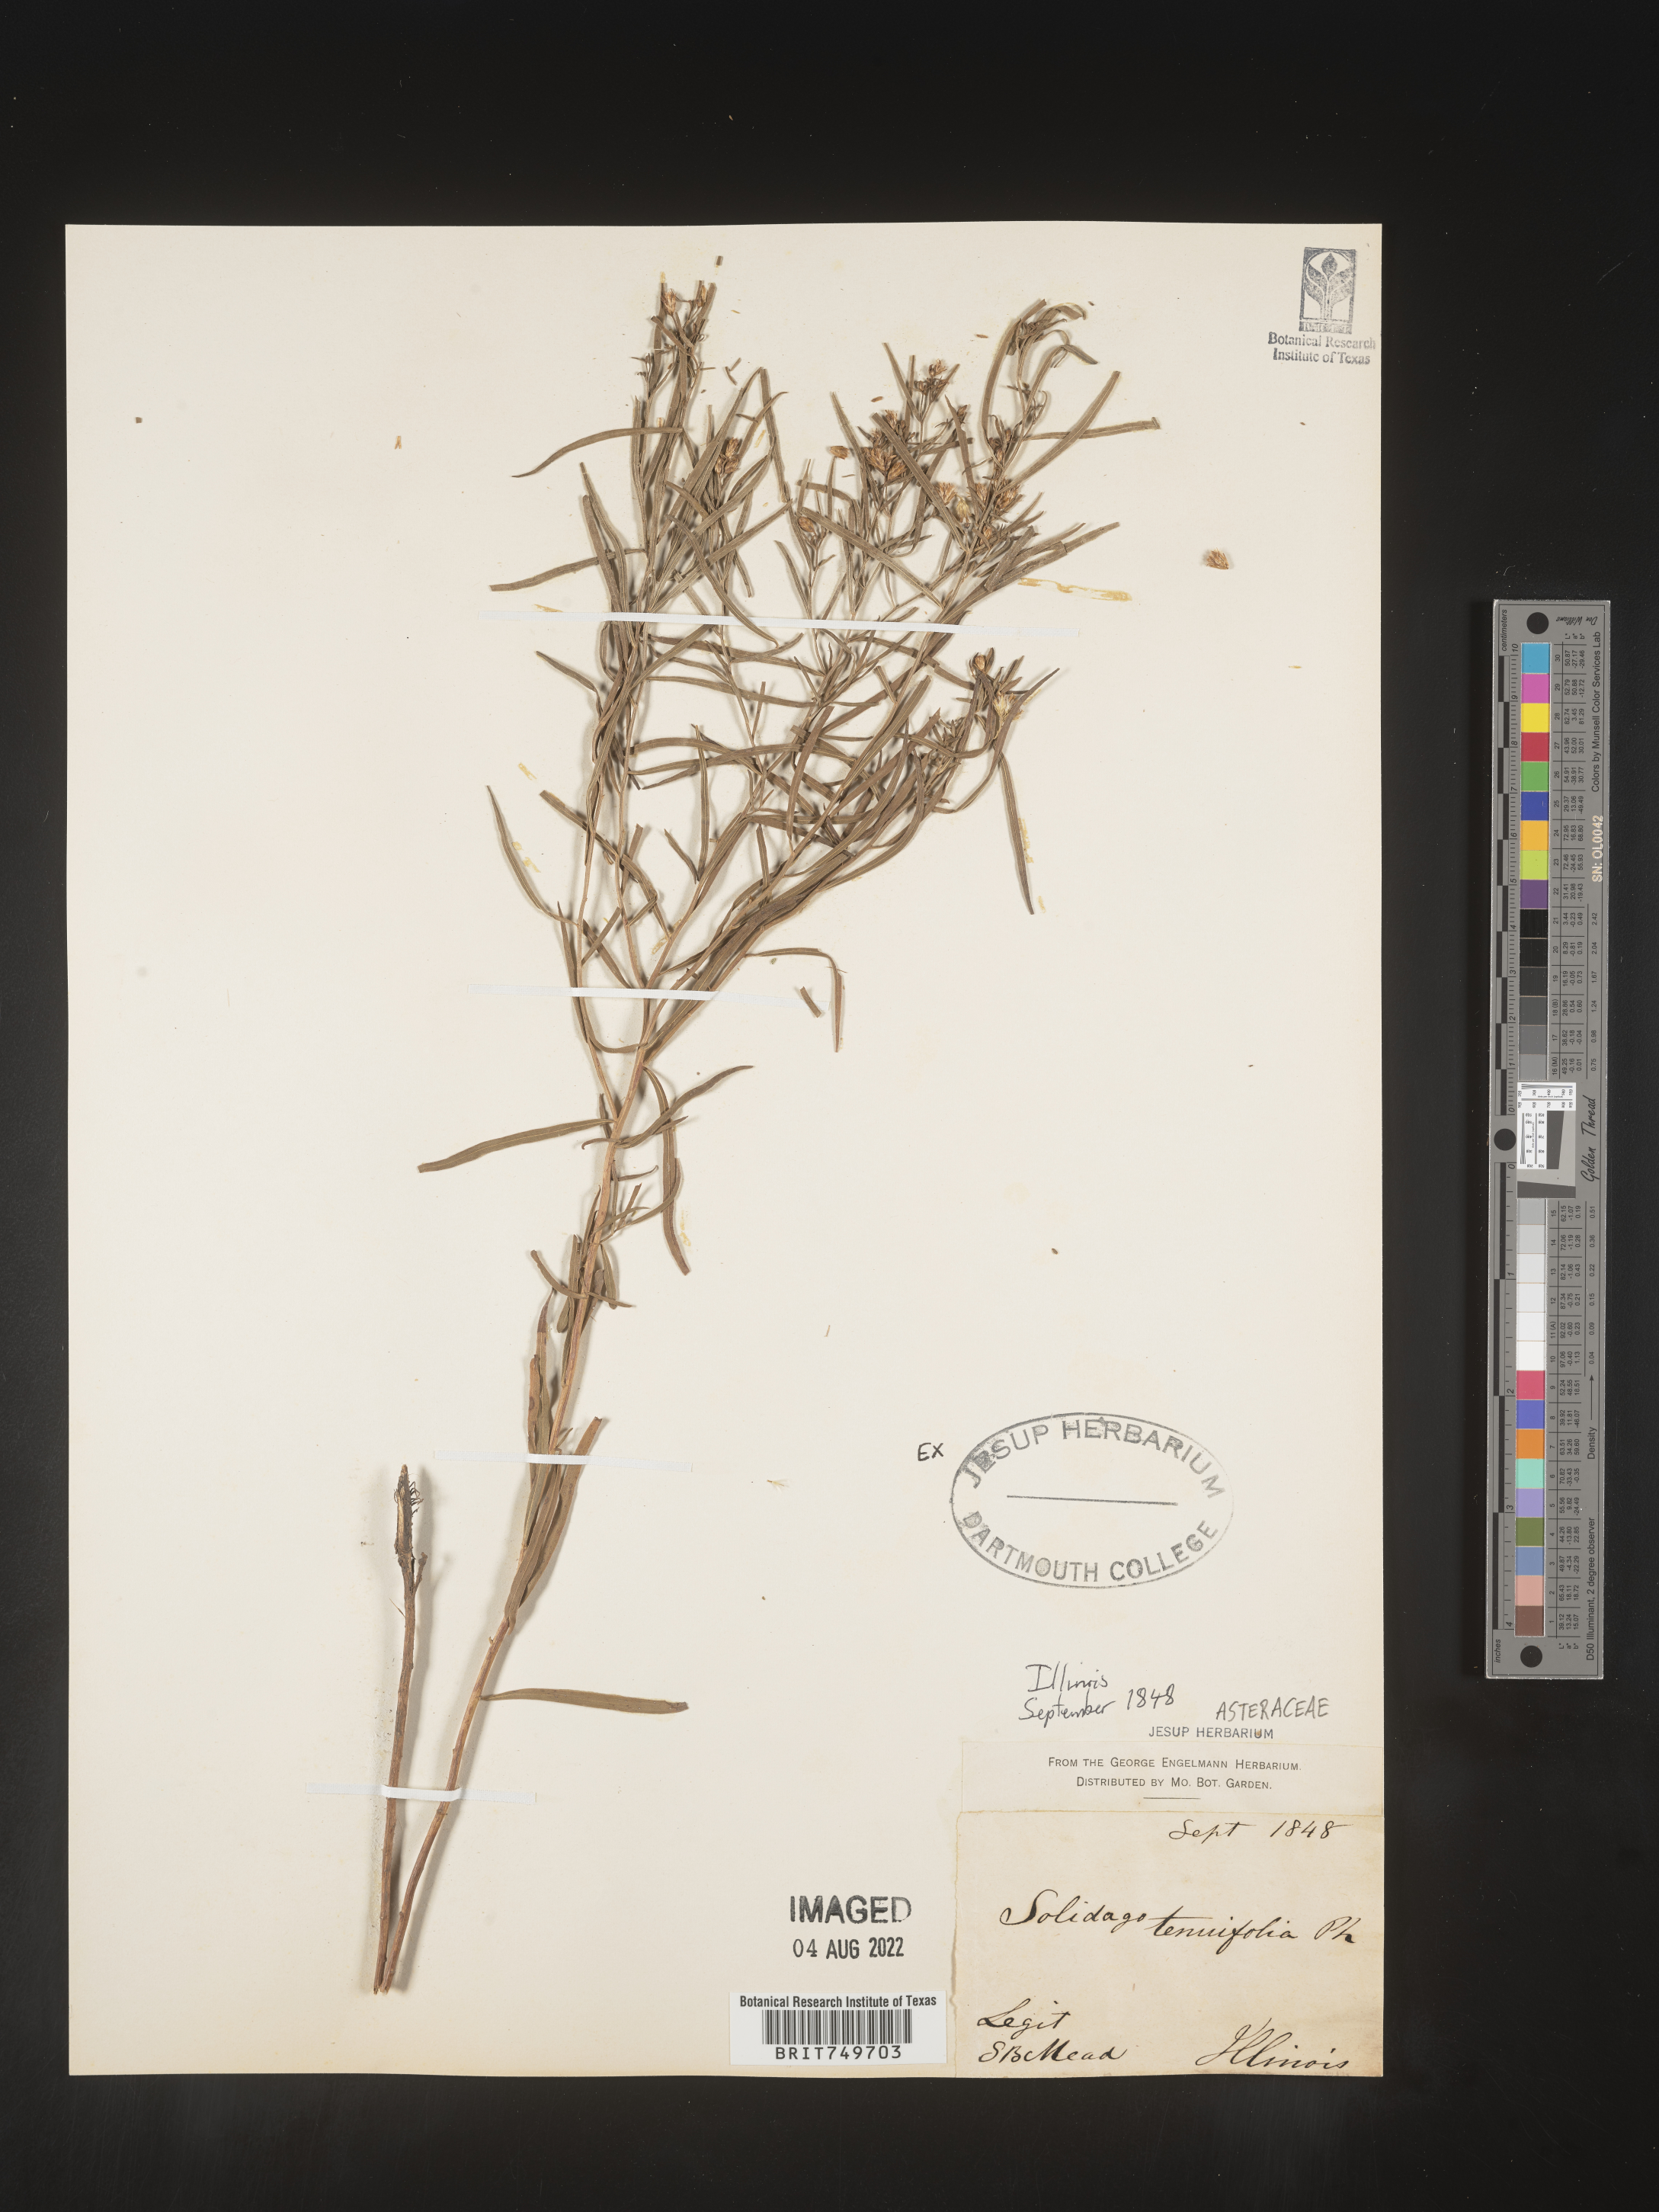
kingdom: Plantae
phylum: Tracheophyta
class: Magnoliopsida
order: Asterales
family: Asteraceae
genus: Euthamia
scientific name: Euthamia caroliniana
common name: Coastal plain goldentop
